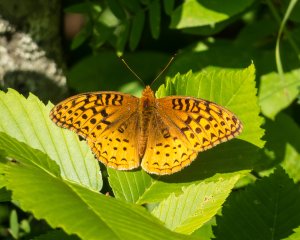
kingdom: Animalia
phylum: Arthropoda
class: Insecta
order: Lepidoptera
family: Nymphalidae
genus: Speyeria
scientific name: Speyeria cybele
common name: Great Spangled Fritillary
